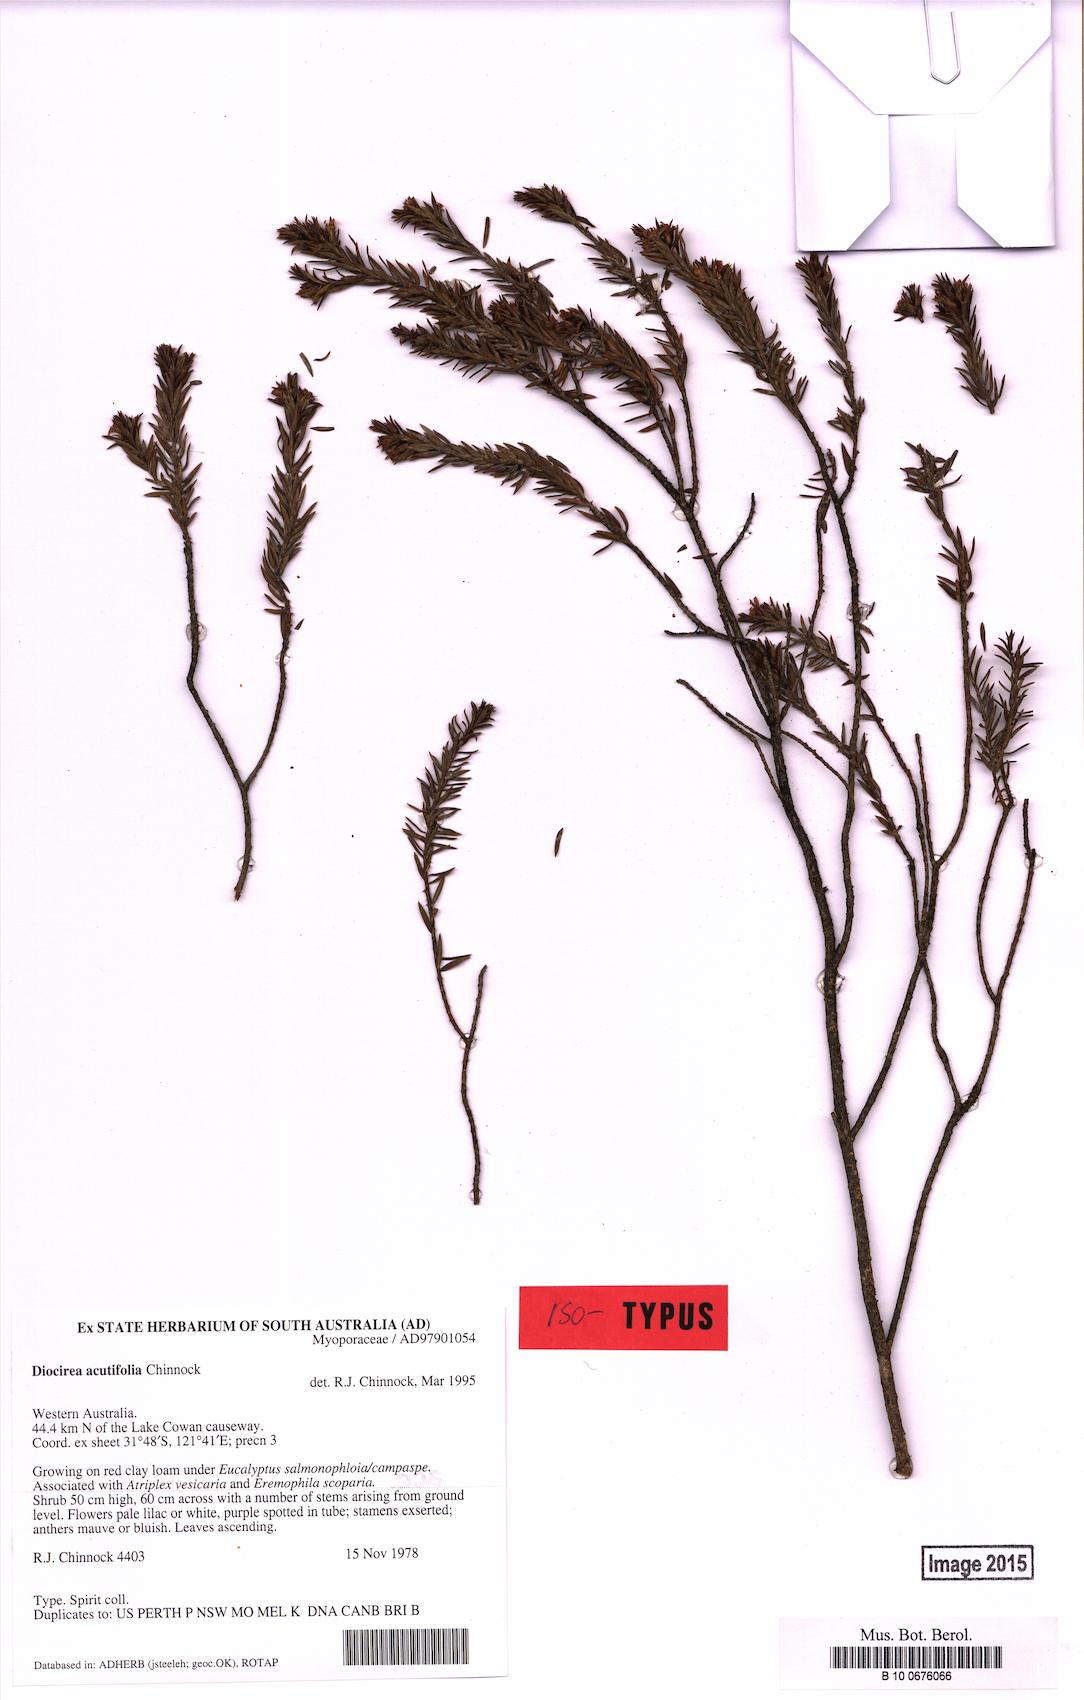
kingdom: Plantae
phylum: Tracheophyta
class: Magnoliopsida
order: Lamiales
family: Scrophulariaceae
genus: Eremophila
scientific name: Eremophila acutifolia
